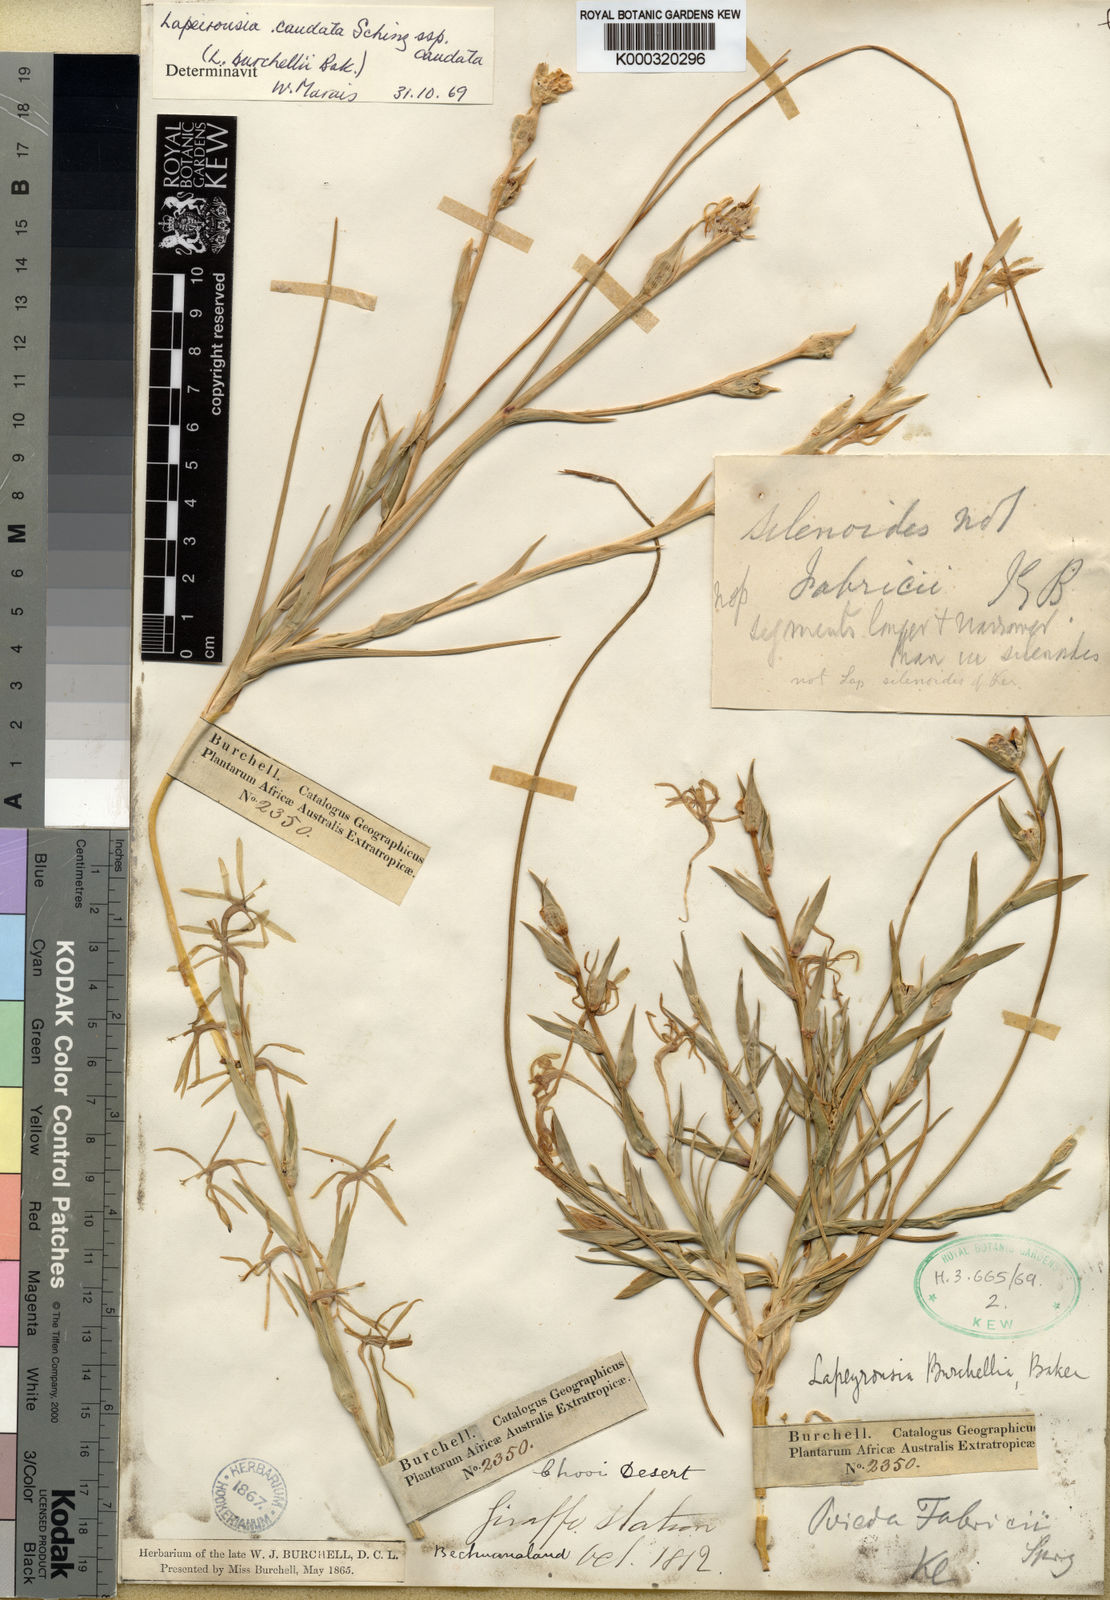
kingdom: Plantae
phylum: Tracheophyta
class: Liliopsida
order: Asparagales
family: Iridaceae
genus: Lapeirousia
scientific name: Lapeirousia littoralis
